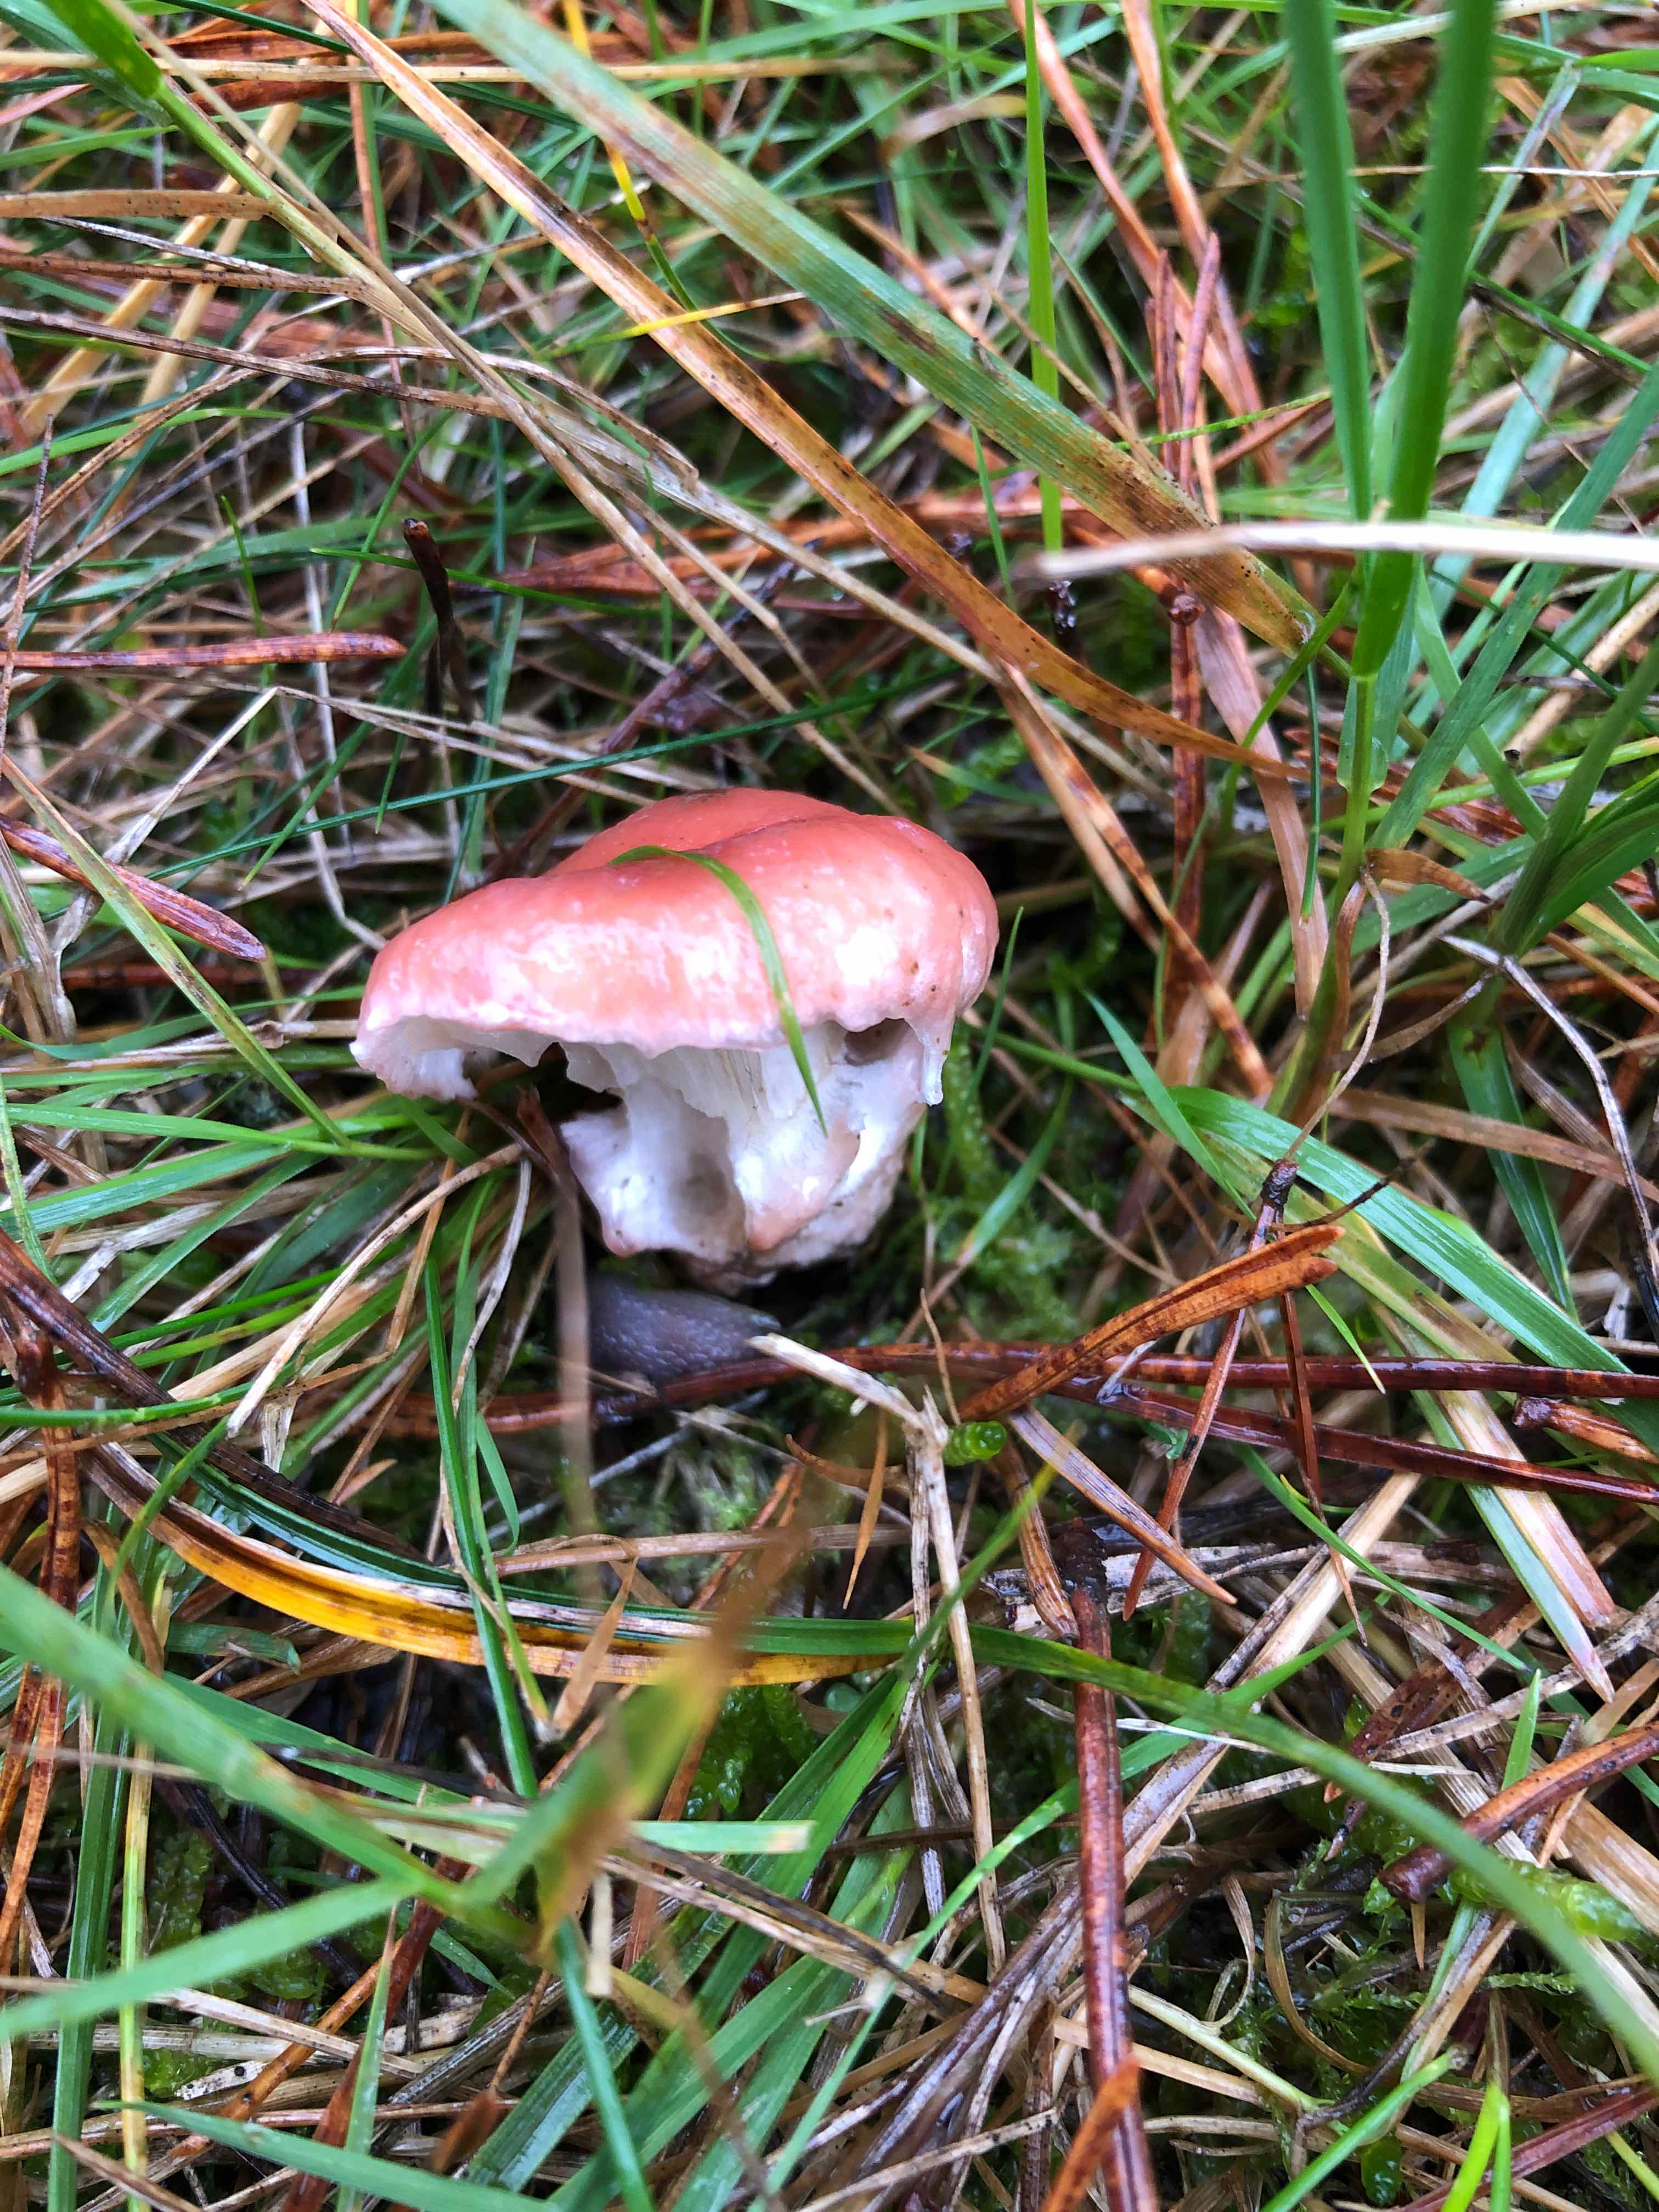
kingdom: Fungi
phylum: Basidiomycota
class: Agaricomycetes
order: Boletales
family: Gomphidiaceae
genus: Gomphidius
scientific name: Gomphidius roseus
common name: rosenrød slimslør
